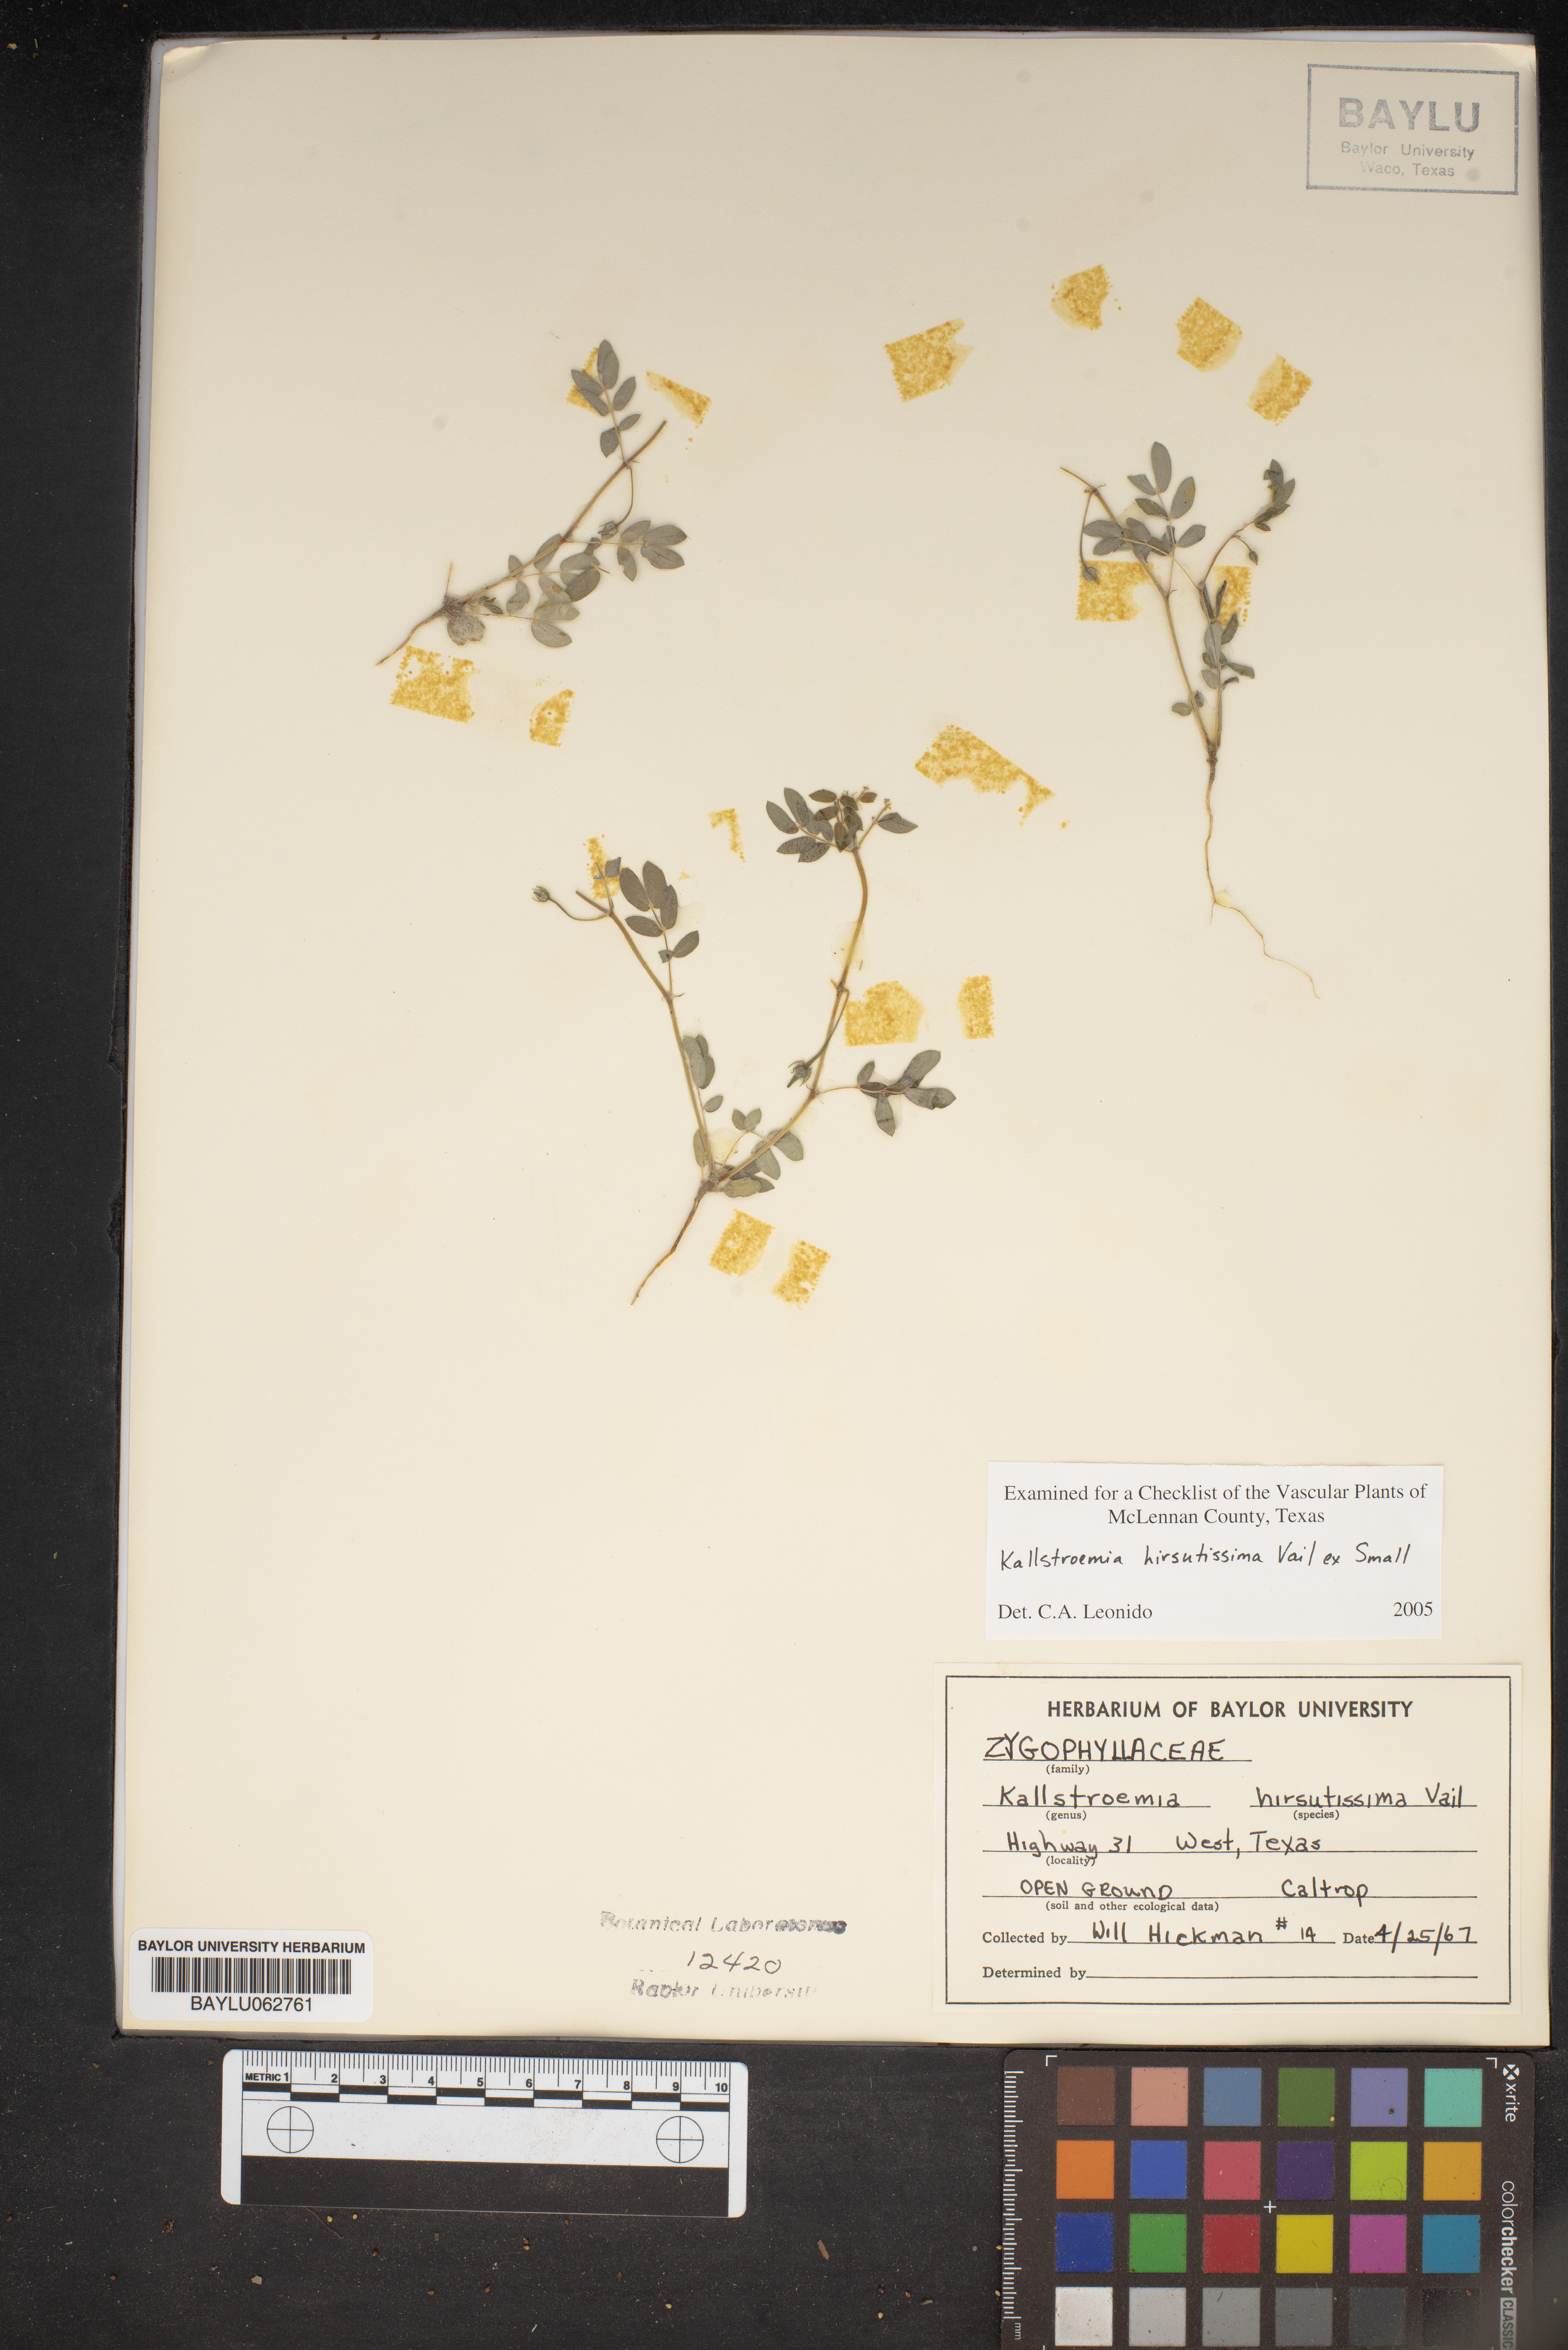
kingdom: Plantae
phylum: Tracheophyta
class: Magnoliopsida
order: Zygophyllales
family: Zygophyllaceae
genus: Kallstroemia
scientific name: Kallstroemia hirsutissima
